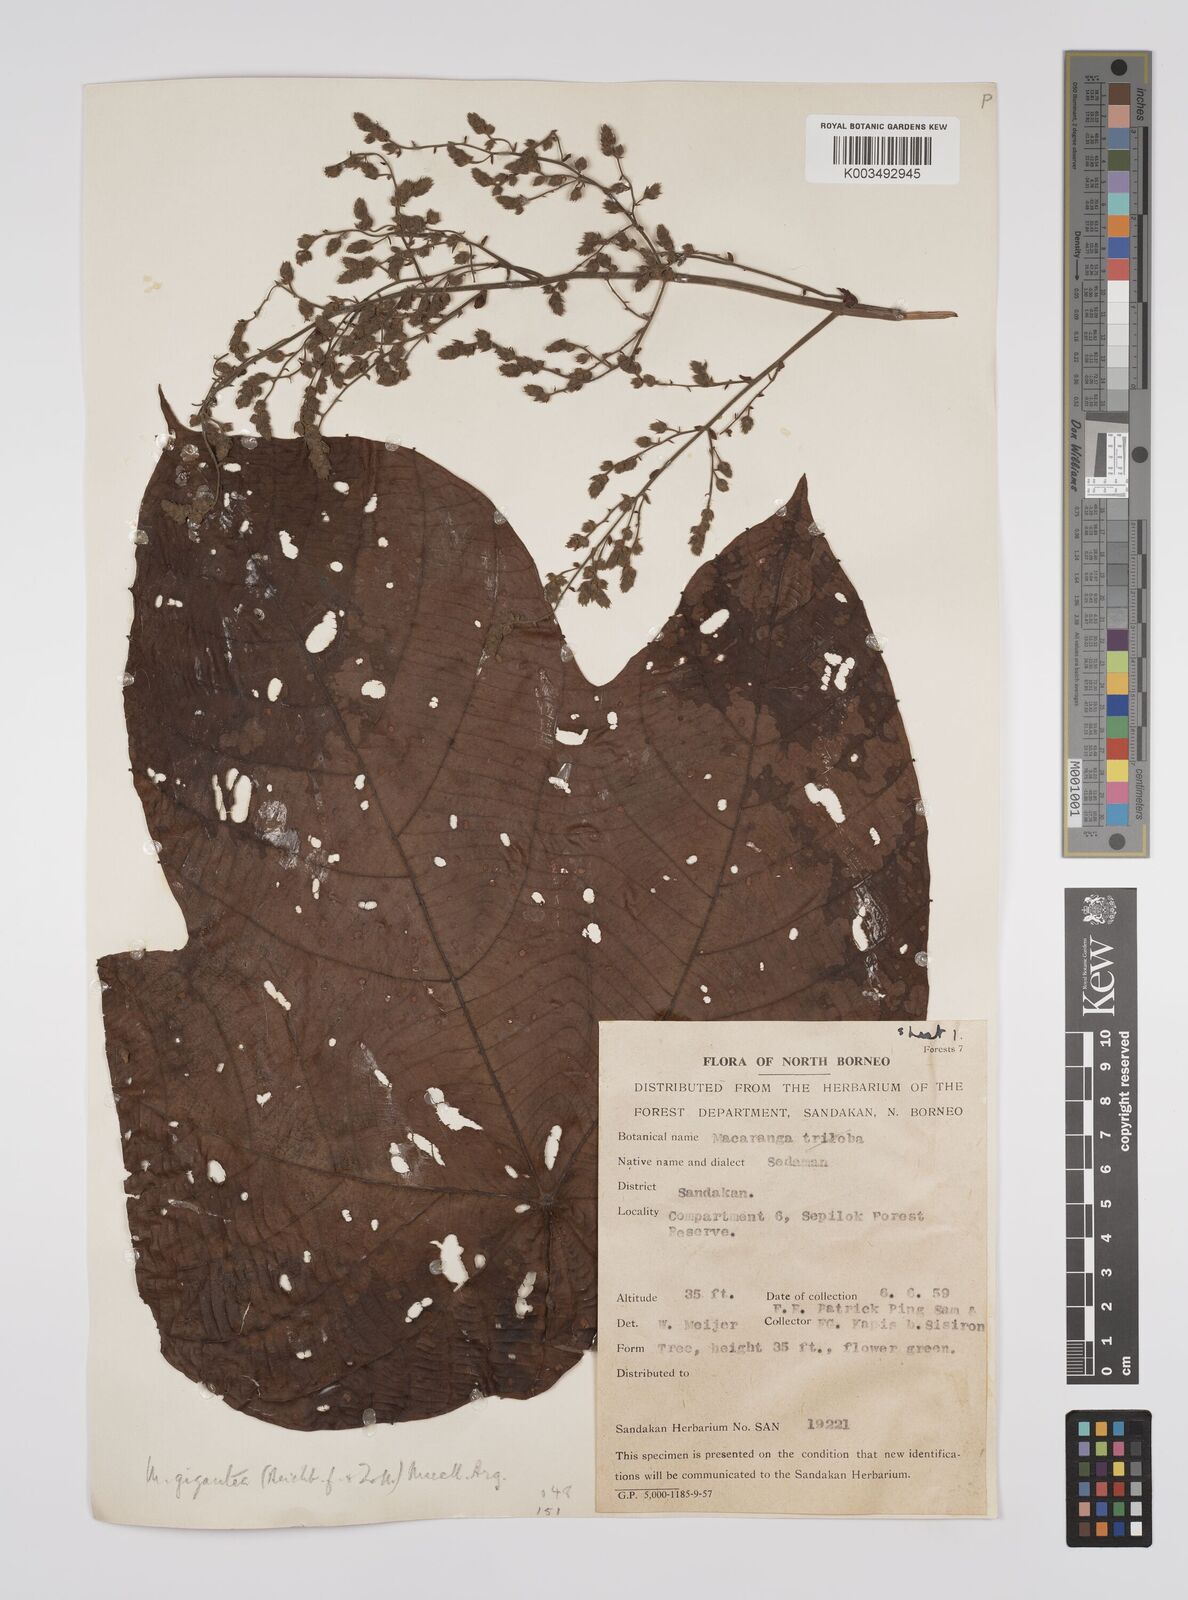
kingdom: Plantae
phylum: Tracheophyta
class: Magnoliopsida
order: Malpighiales
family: Euphorbiaceae
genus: Macaranga
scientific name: Macaranga gigantea
